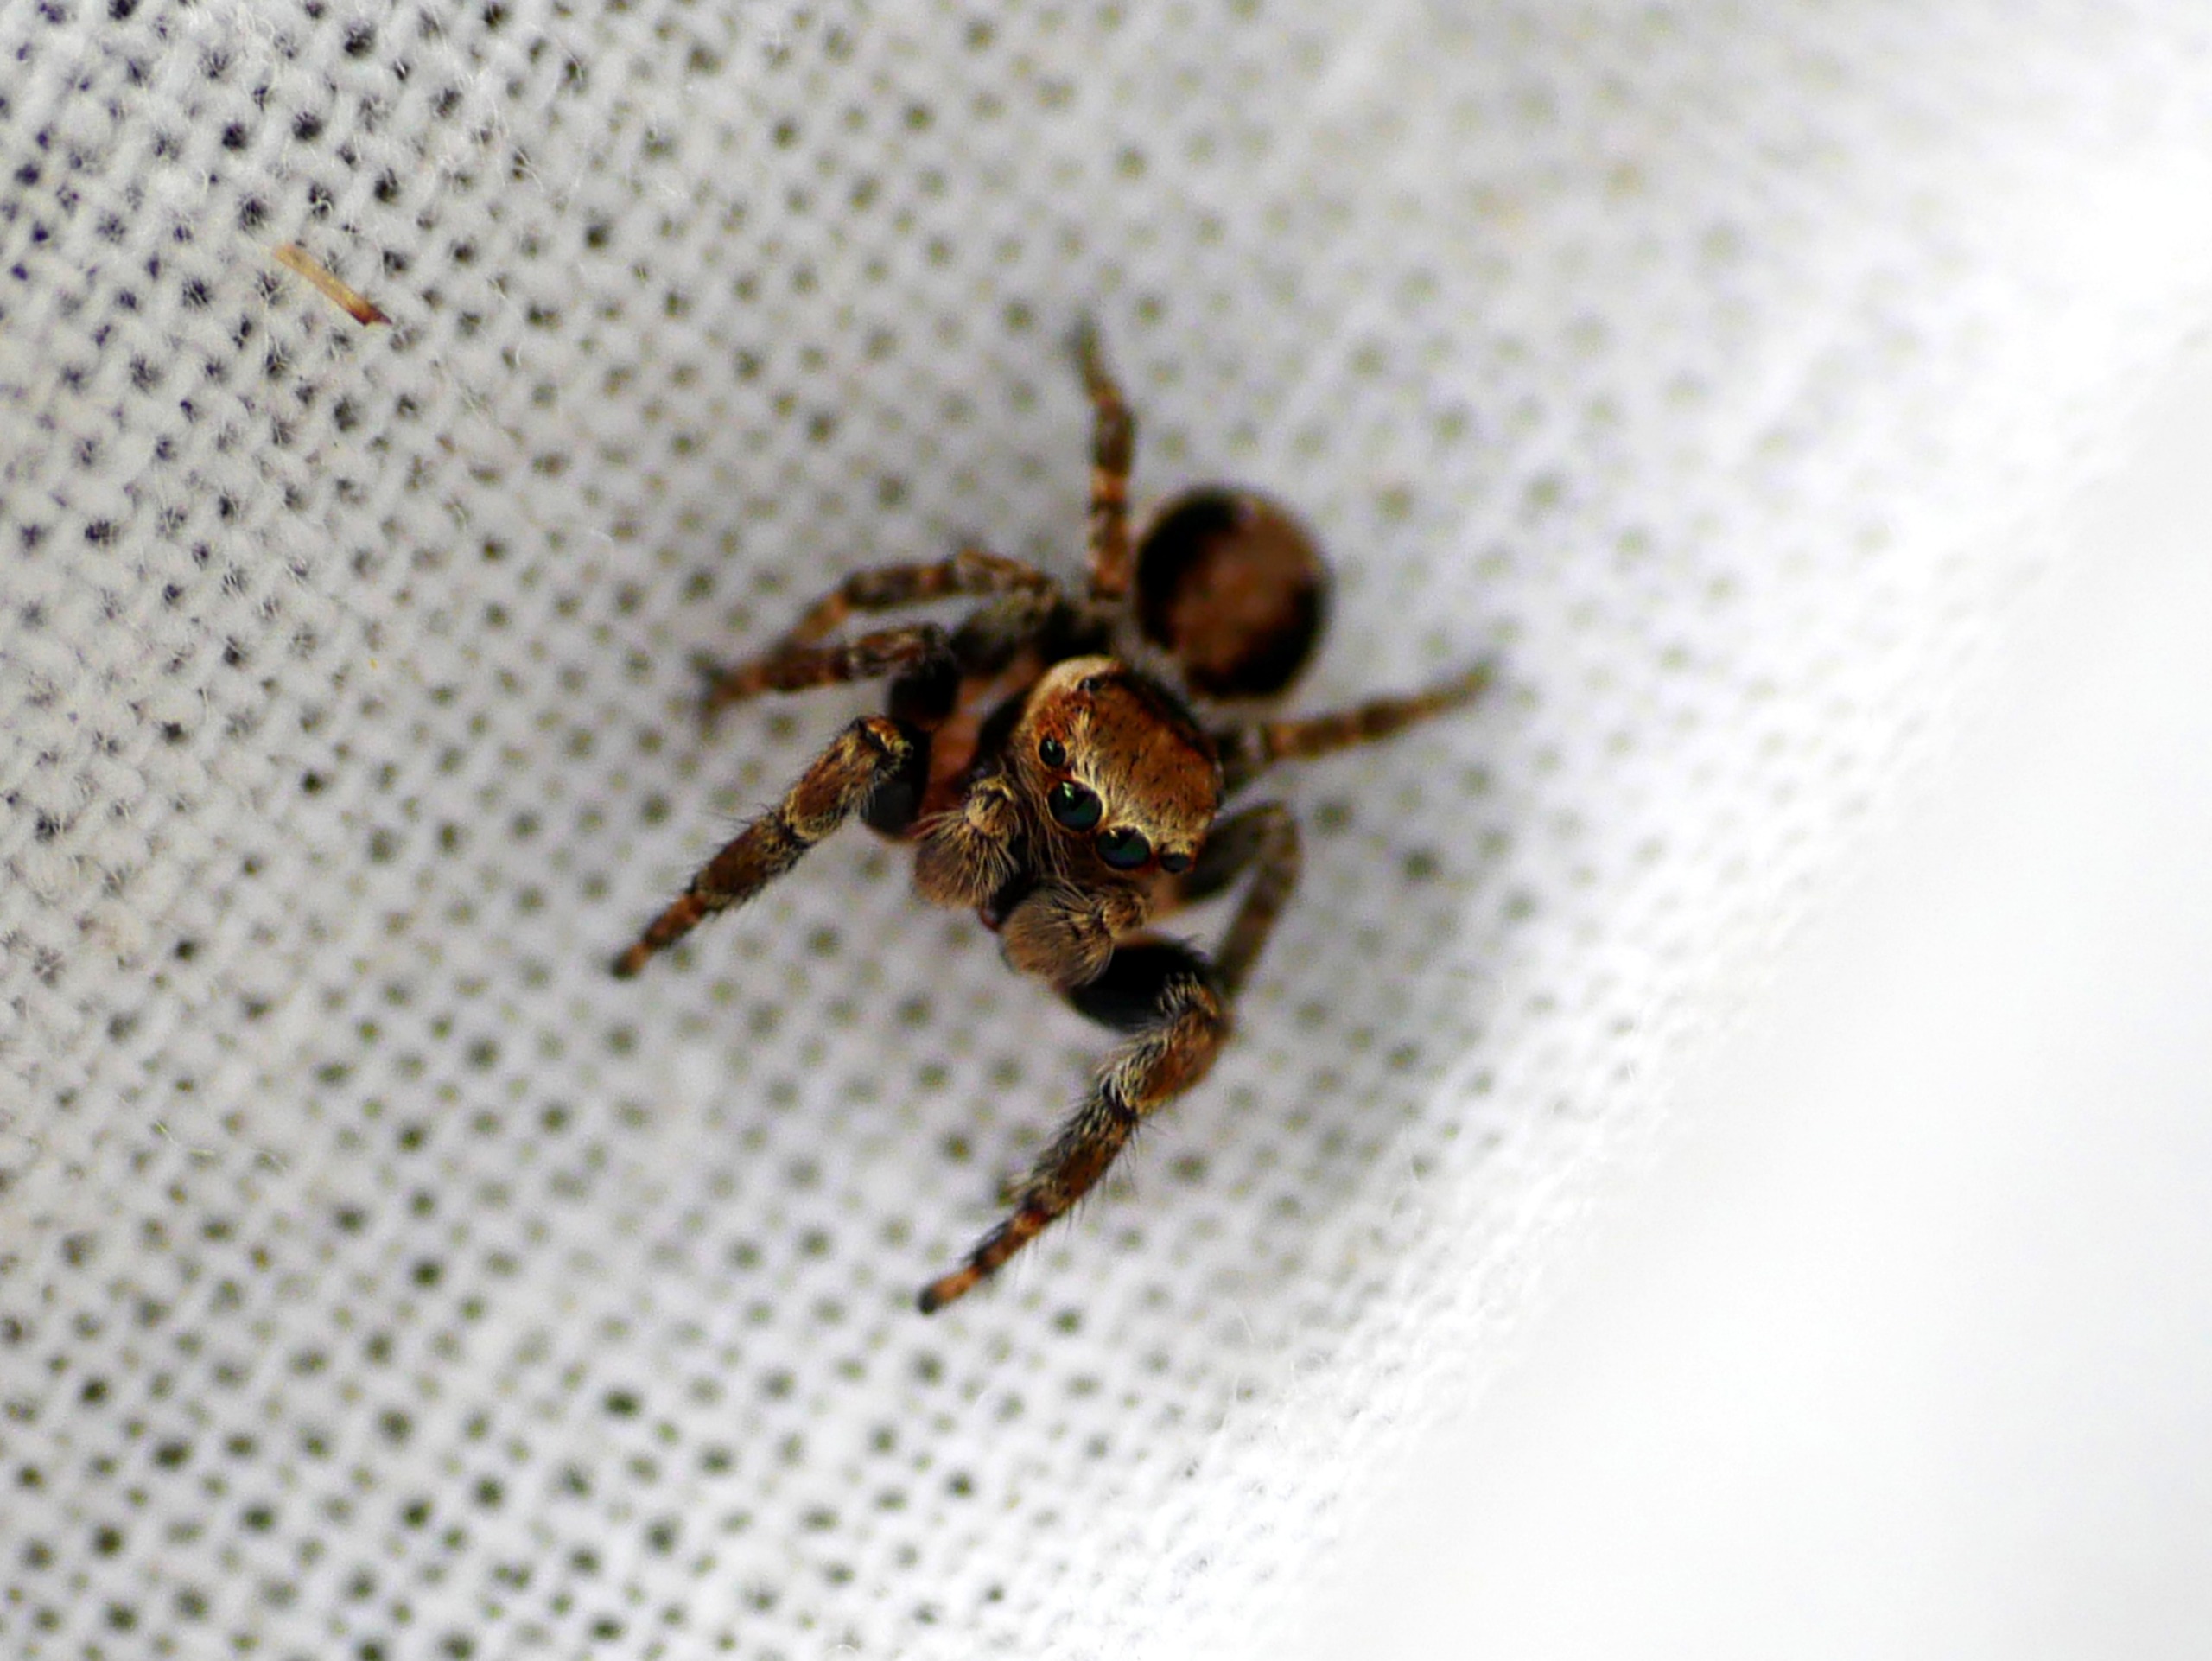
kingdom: Animalia
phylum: Arthropoda
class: Arachnida
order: Araneae
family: Salticidae
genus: Evarcha
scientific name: Evarcha falcata
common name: Broget springedderkop
